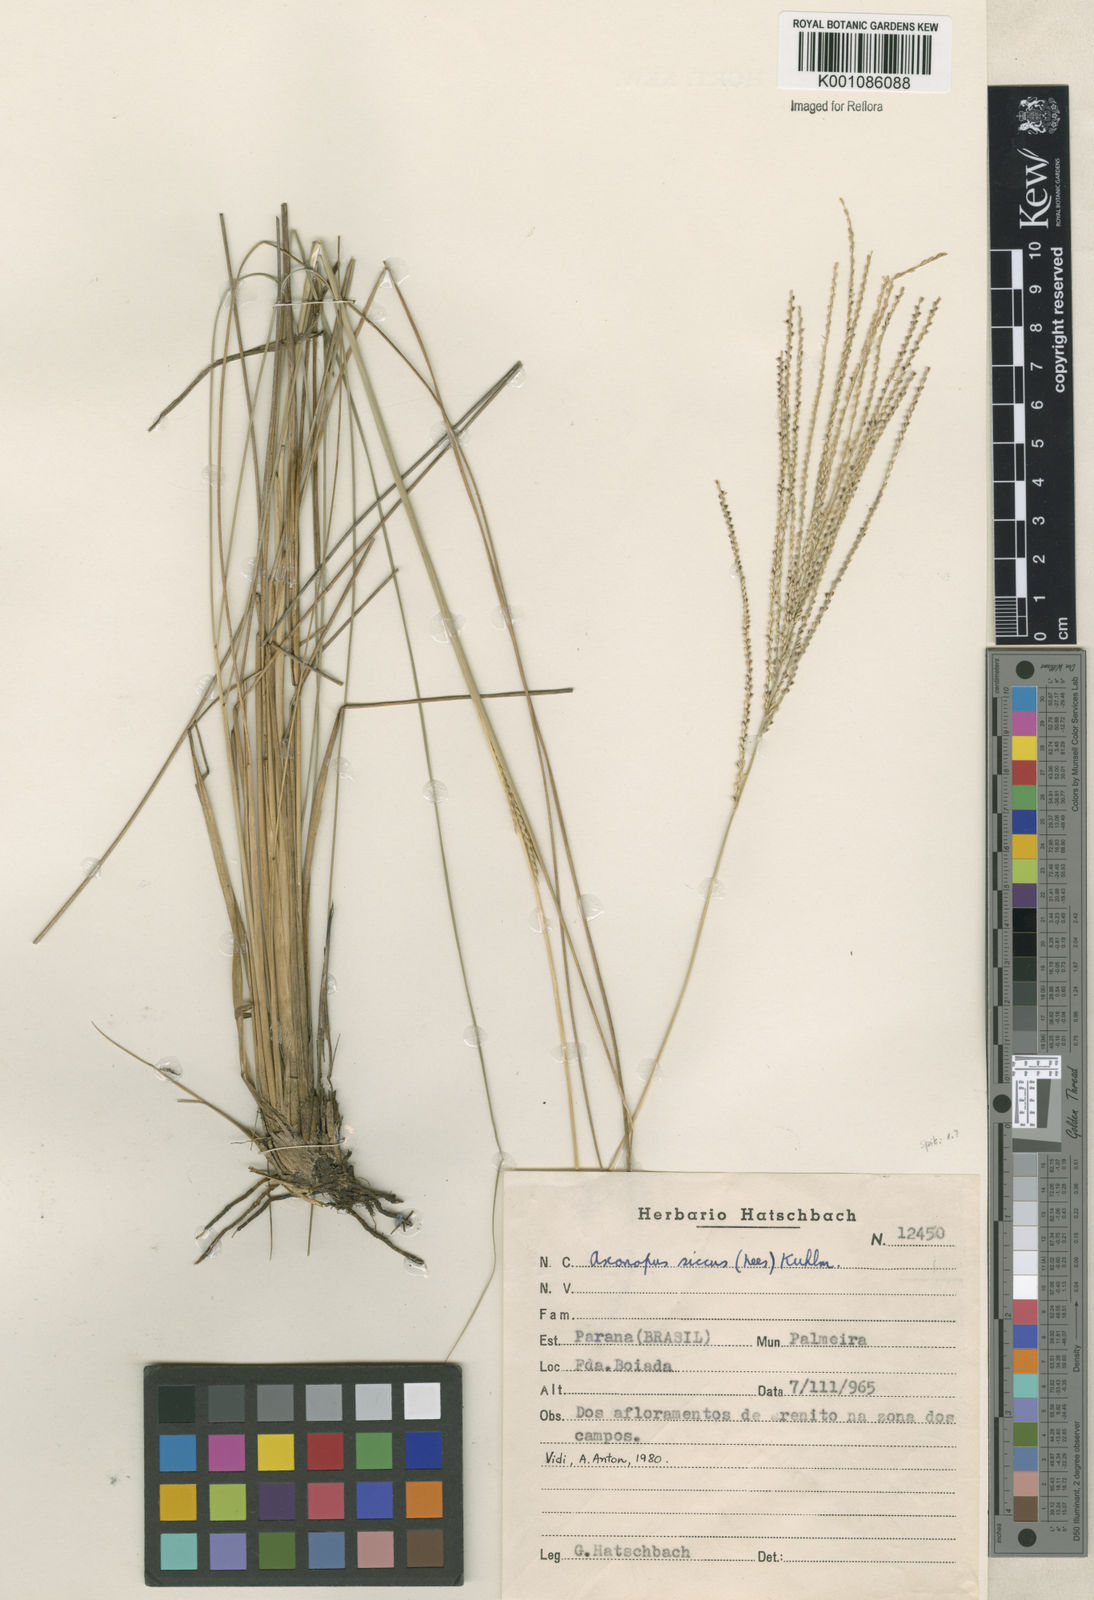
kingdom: Plantae
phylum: Tracheophyta
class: Liliopsida
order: Poales
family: Poaceae
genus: Axonopus
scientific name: Axonopus siccus
